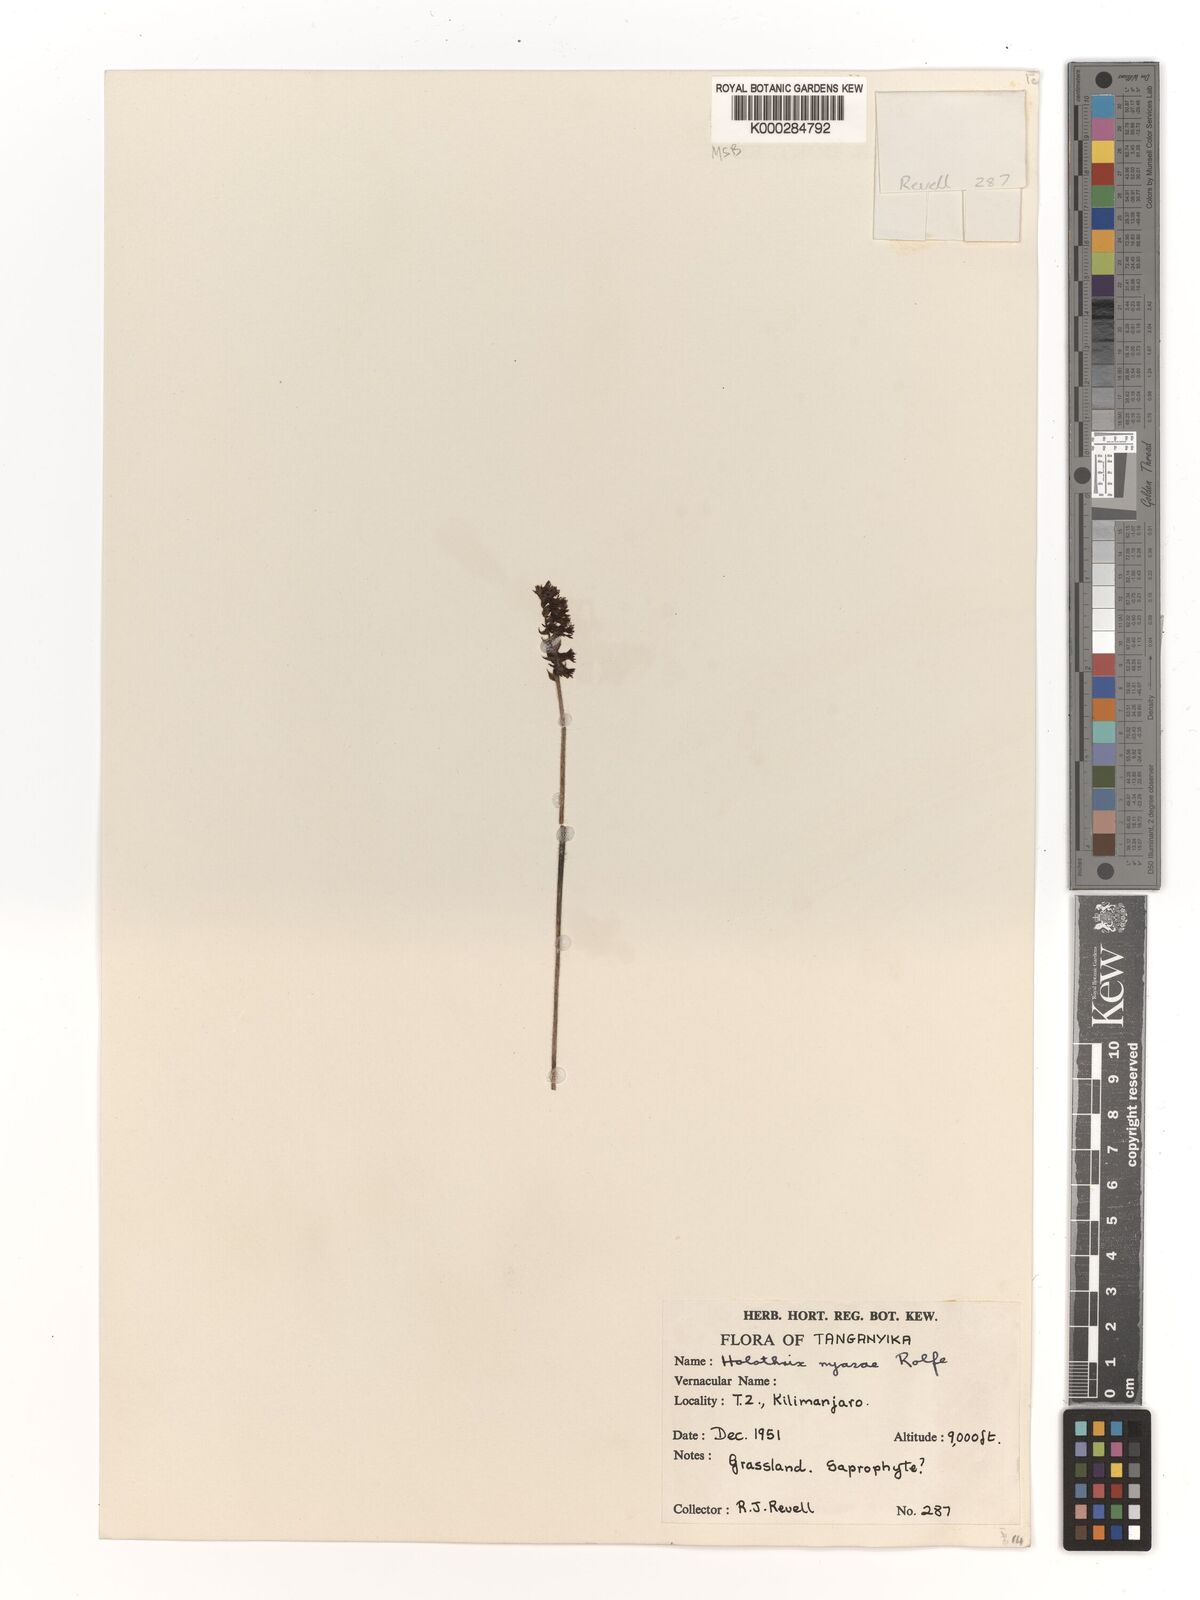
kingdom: Plantae
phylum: Tracheophyta
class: Liliopsida
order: Asparagales
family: Orchidaceae
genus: Holothrix
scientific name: Holothrix nyasae
